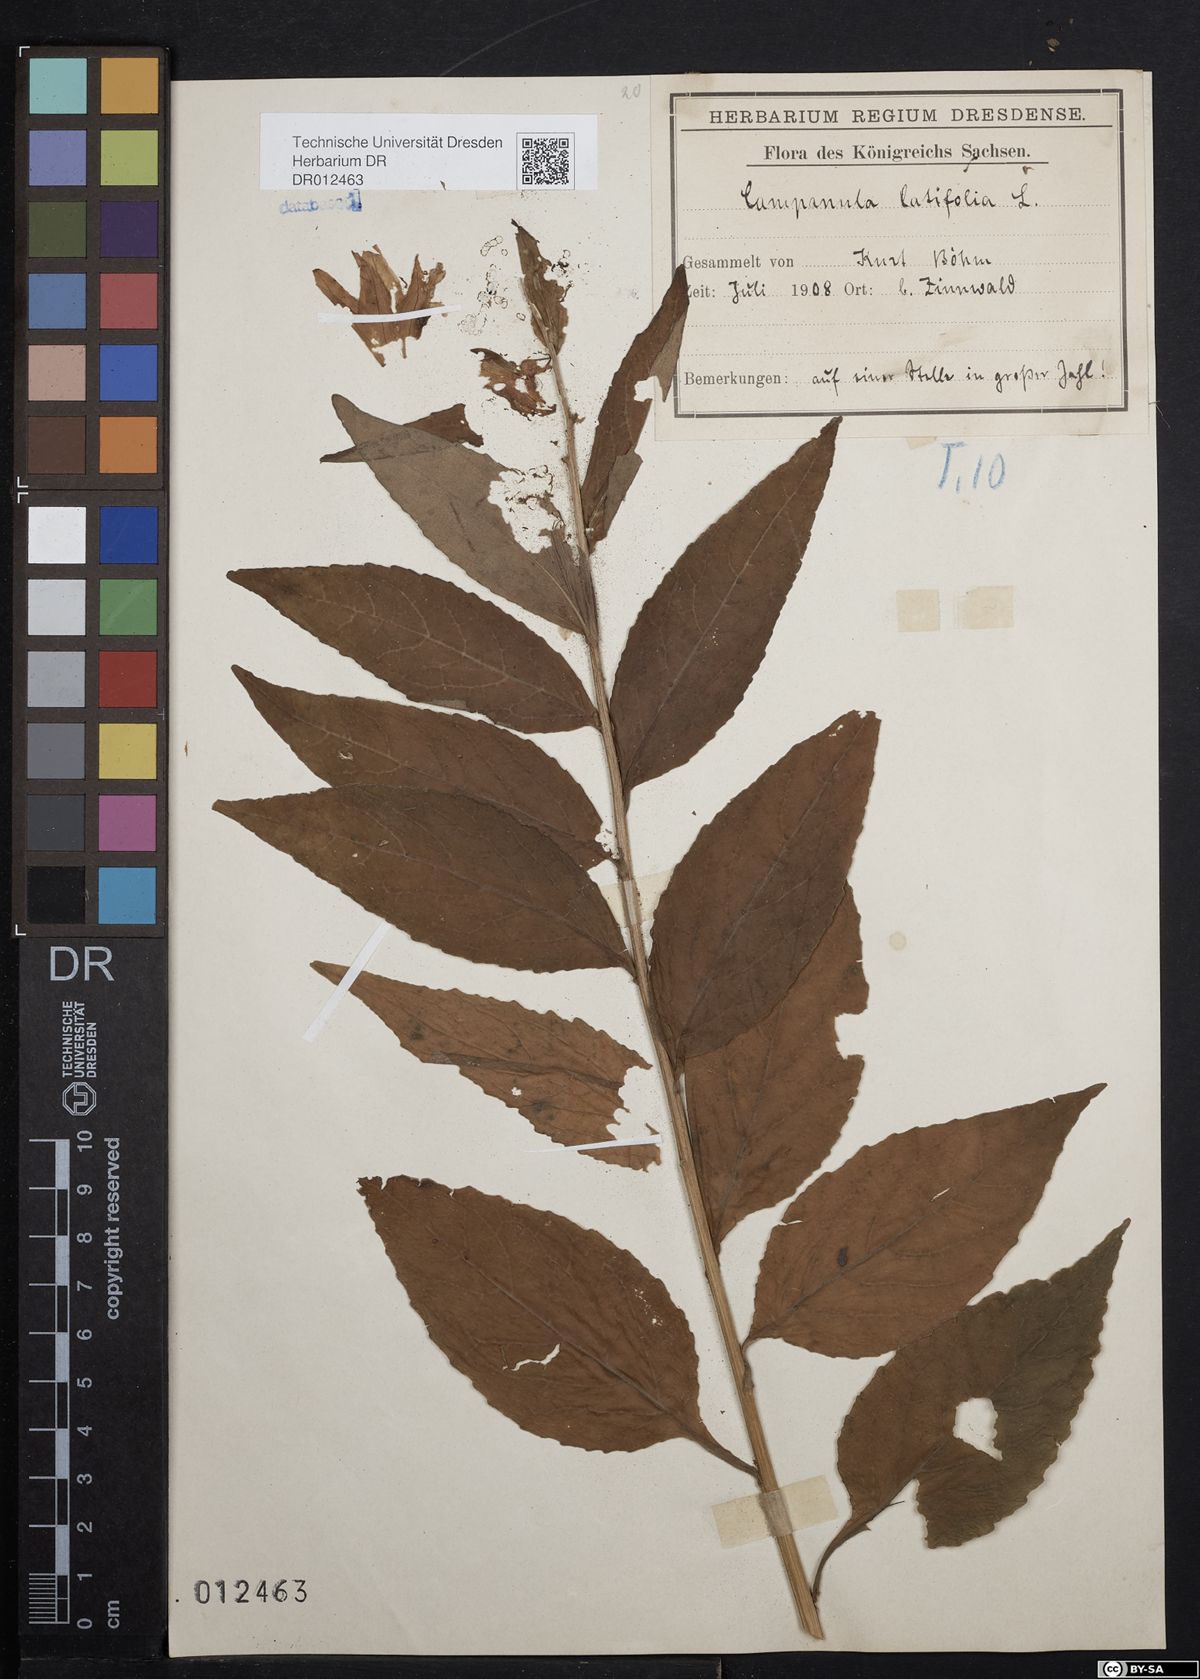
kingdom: Plantae
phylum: Tracheophyta
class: Magnoliopsida
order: Asterales
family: Campanulaceae
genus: Campanula
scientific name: Campanula latifolia
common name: Giant bellflower
